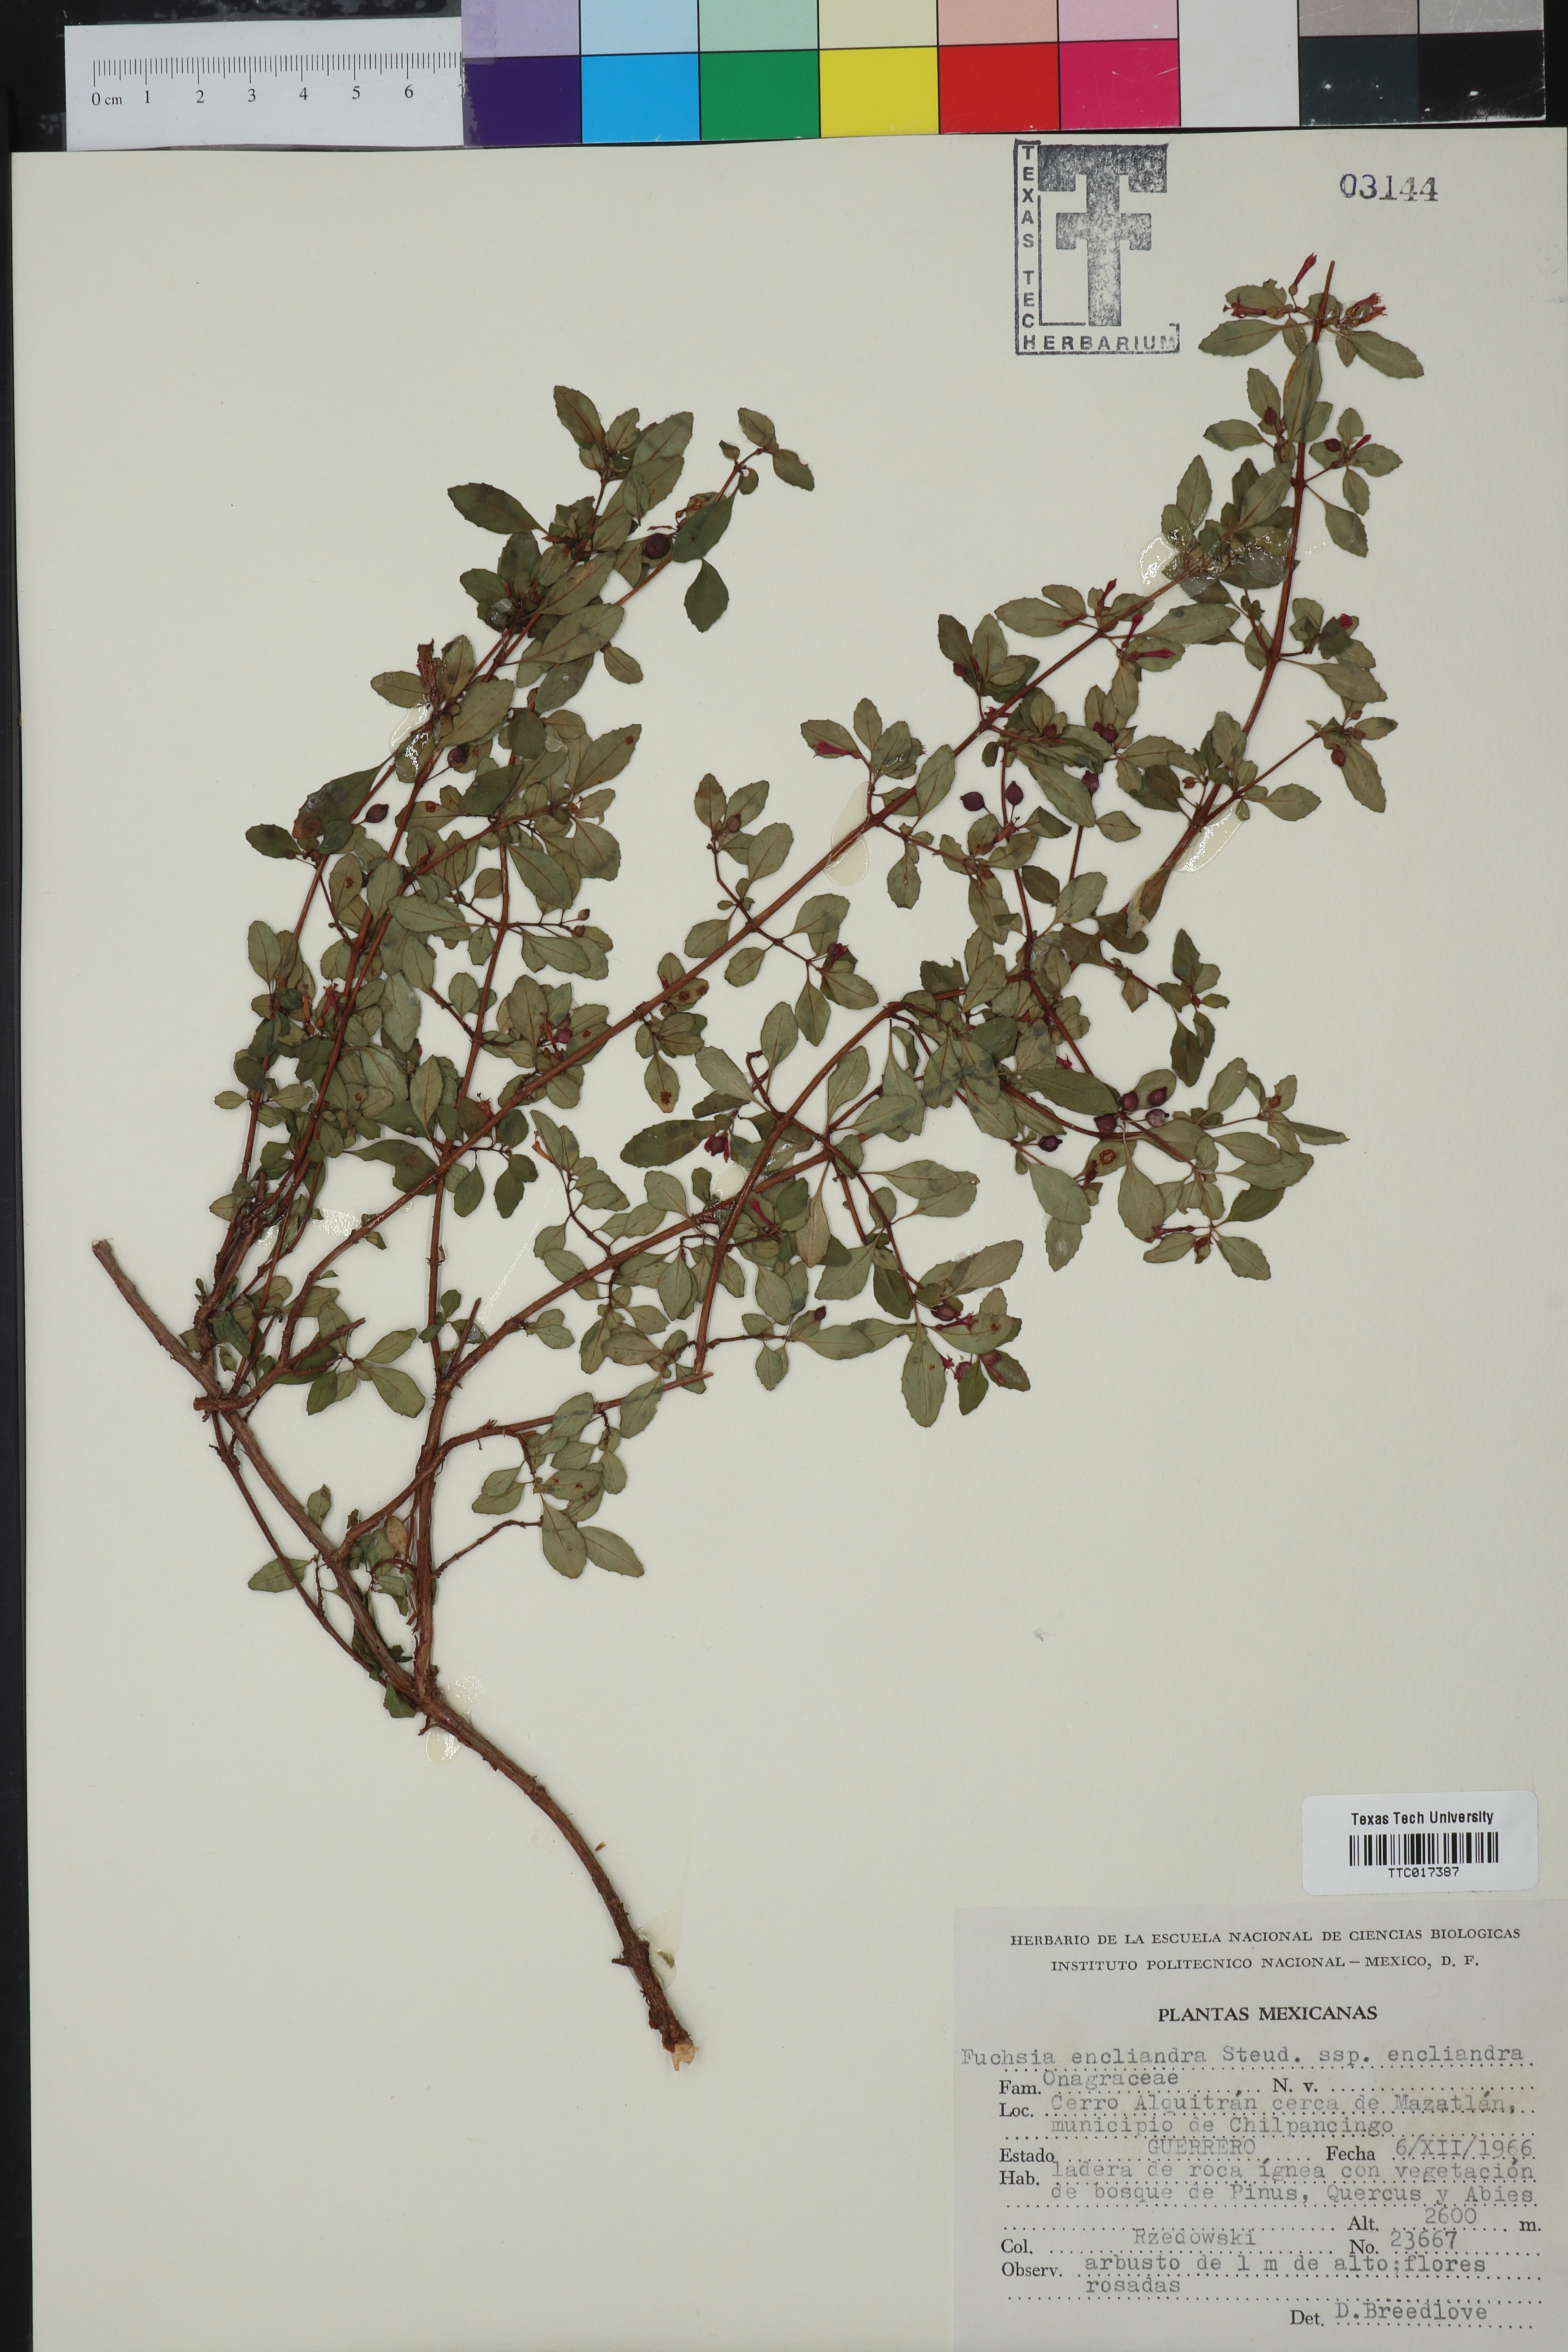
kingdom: Plantae
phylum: Tracheophyta
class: Magnoliopsida
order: Myrtales
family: Onagraceae
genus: Fuchsia
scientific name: Fuchsia encliandra
